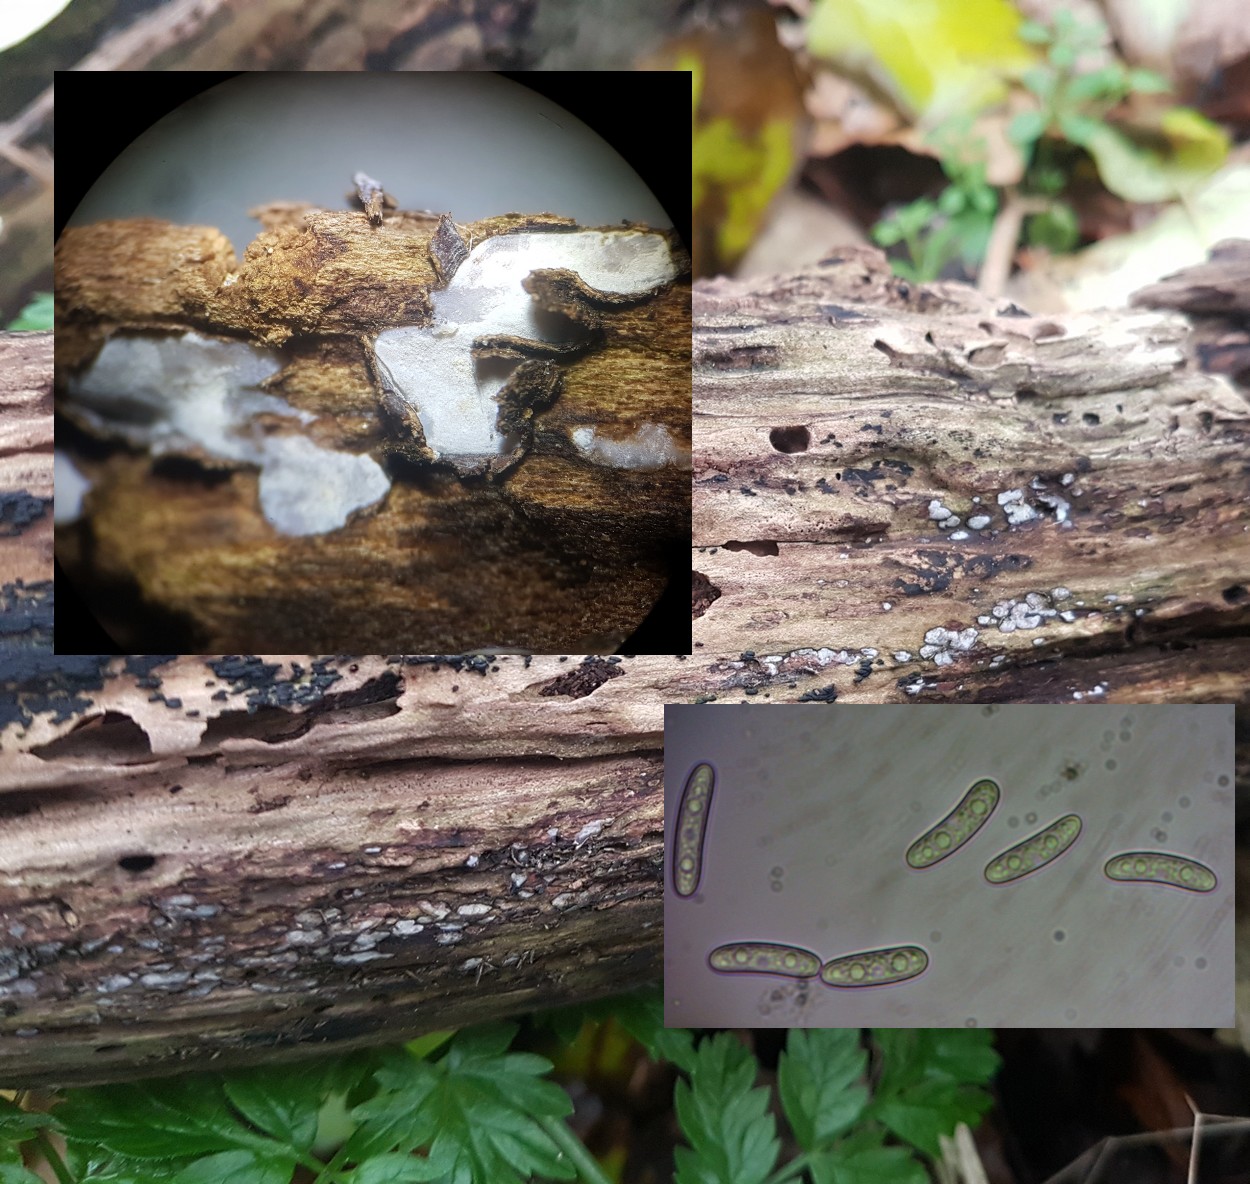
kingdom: Fungi
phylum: Ascomycota
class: Leotiomycetes
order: Chaetomellales
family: Marthamycetaceae
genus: Propolis
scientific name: Propolis farinosa
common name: almindelig vedsprængerskive
